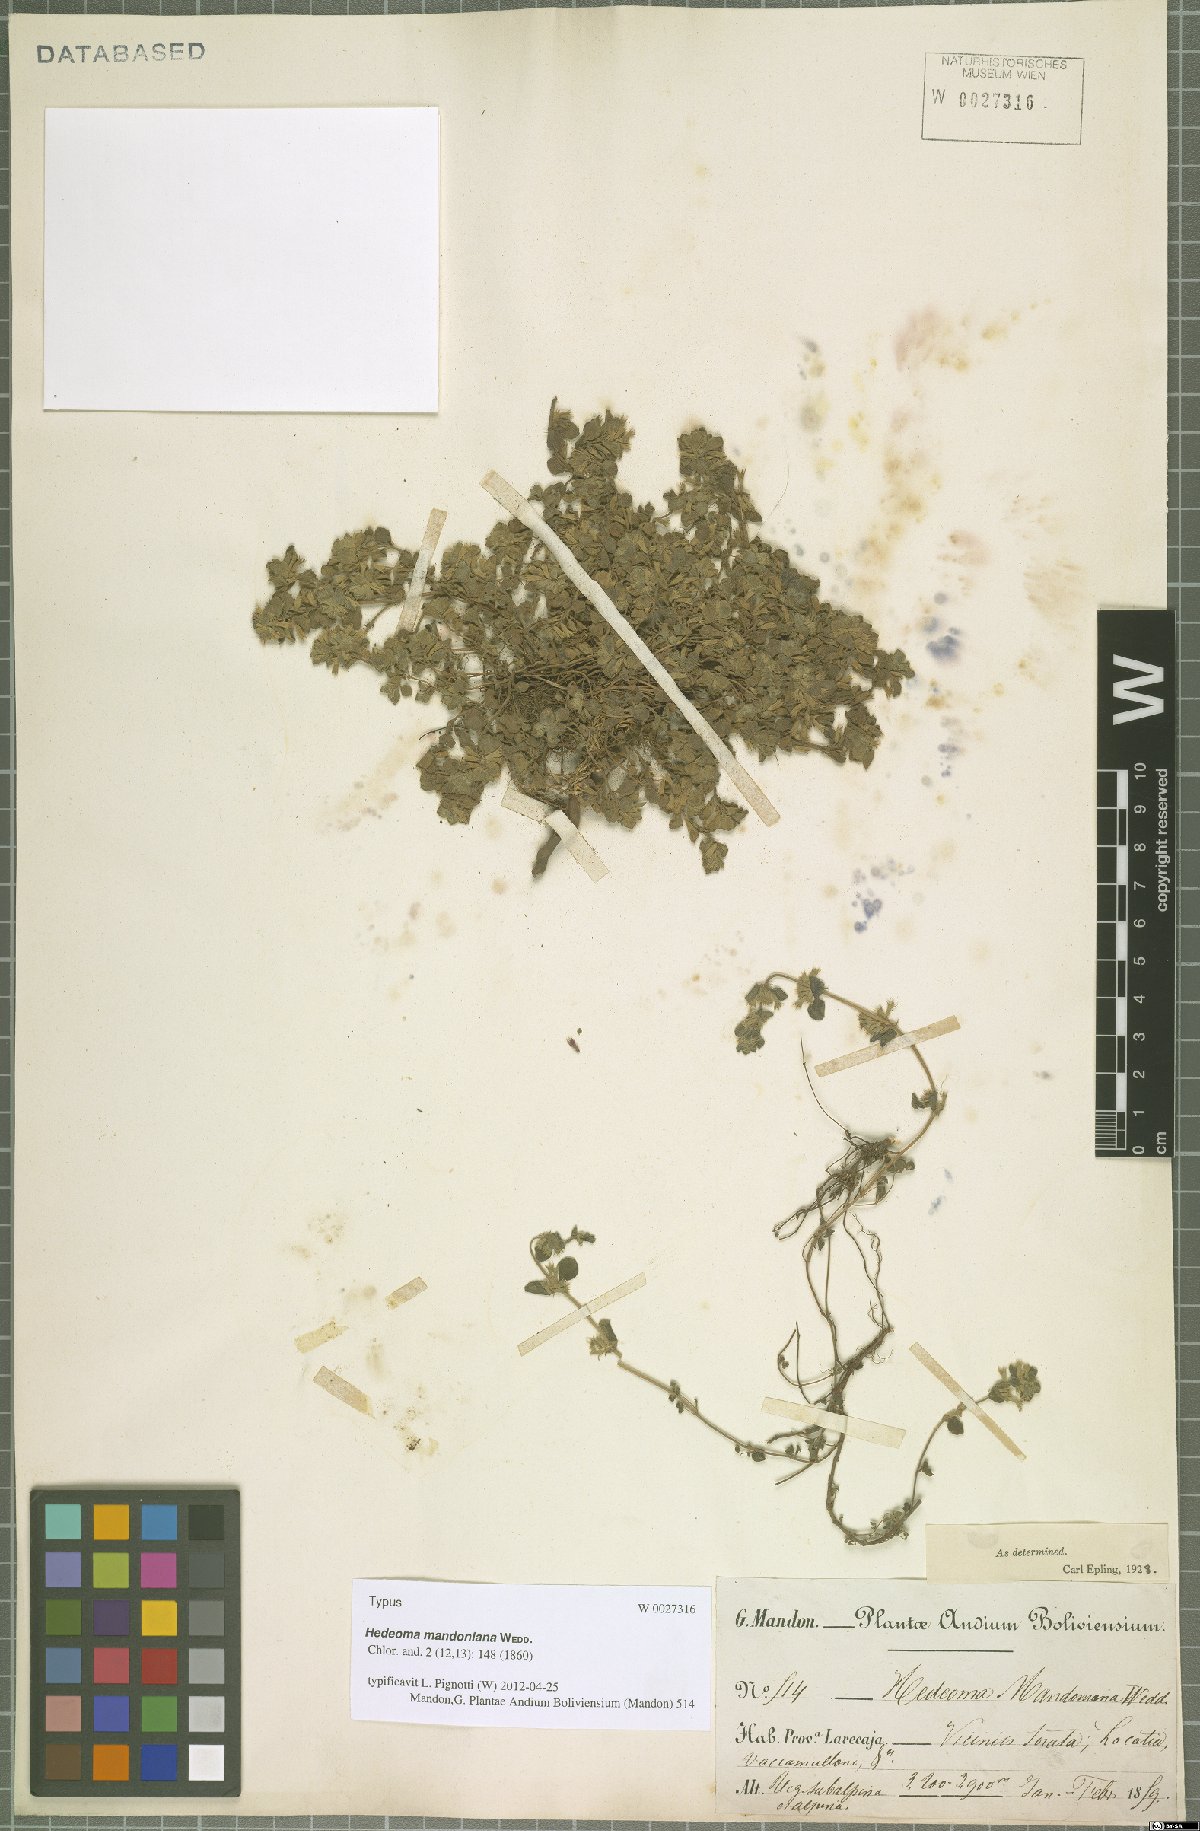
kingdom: Plantae
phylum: Tracheophyta
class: Magnoliopsida
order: Lamiales
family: Lamiaceae
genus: Hedeoma
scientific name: Hedeoma mandoniana
